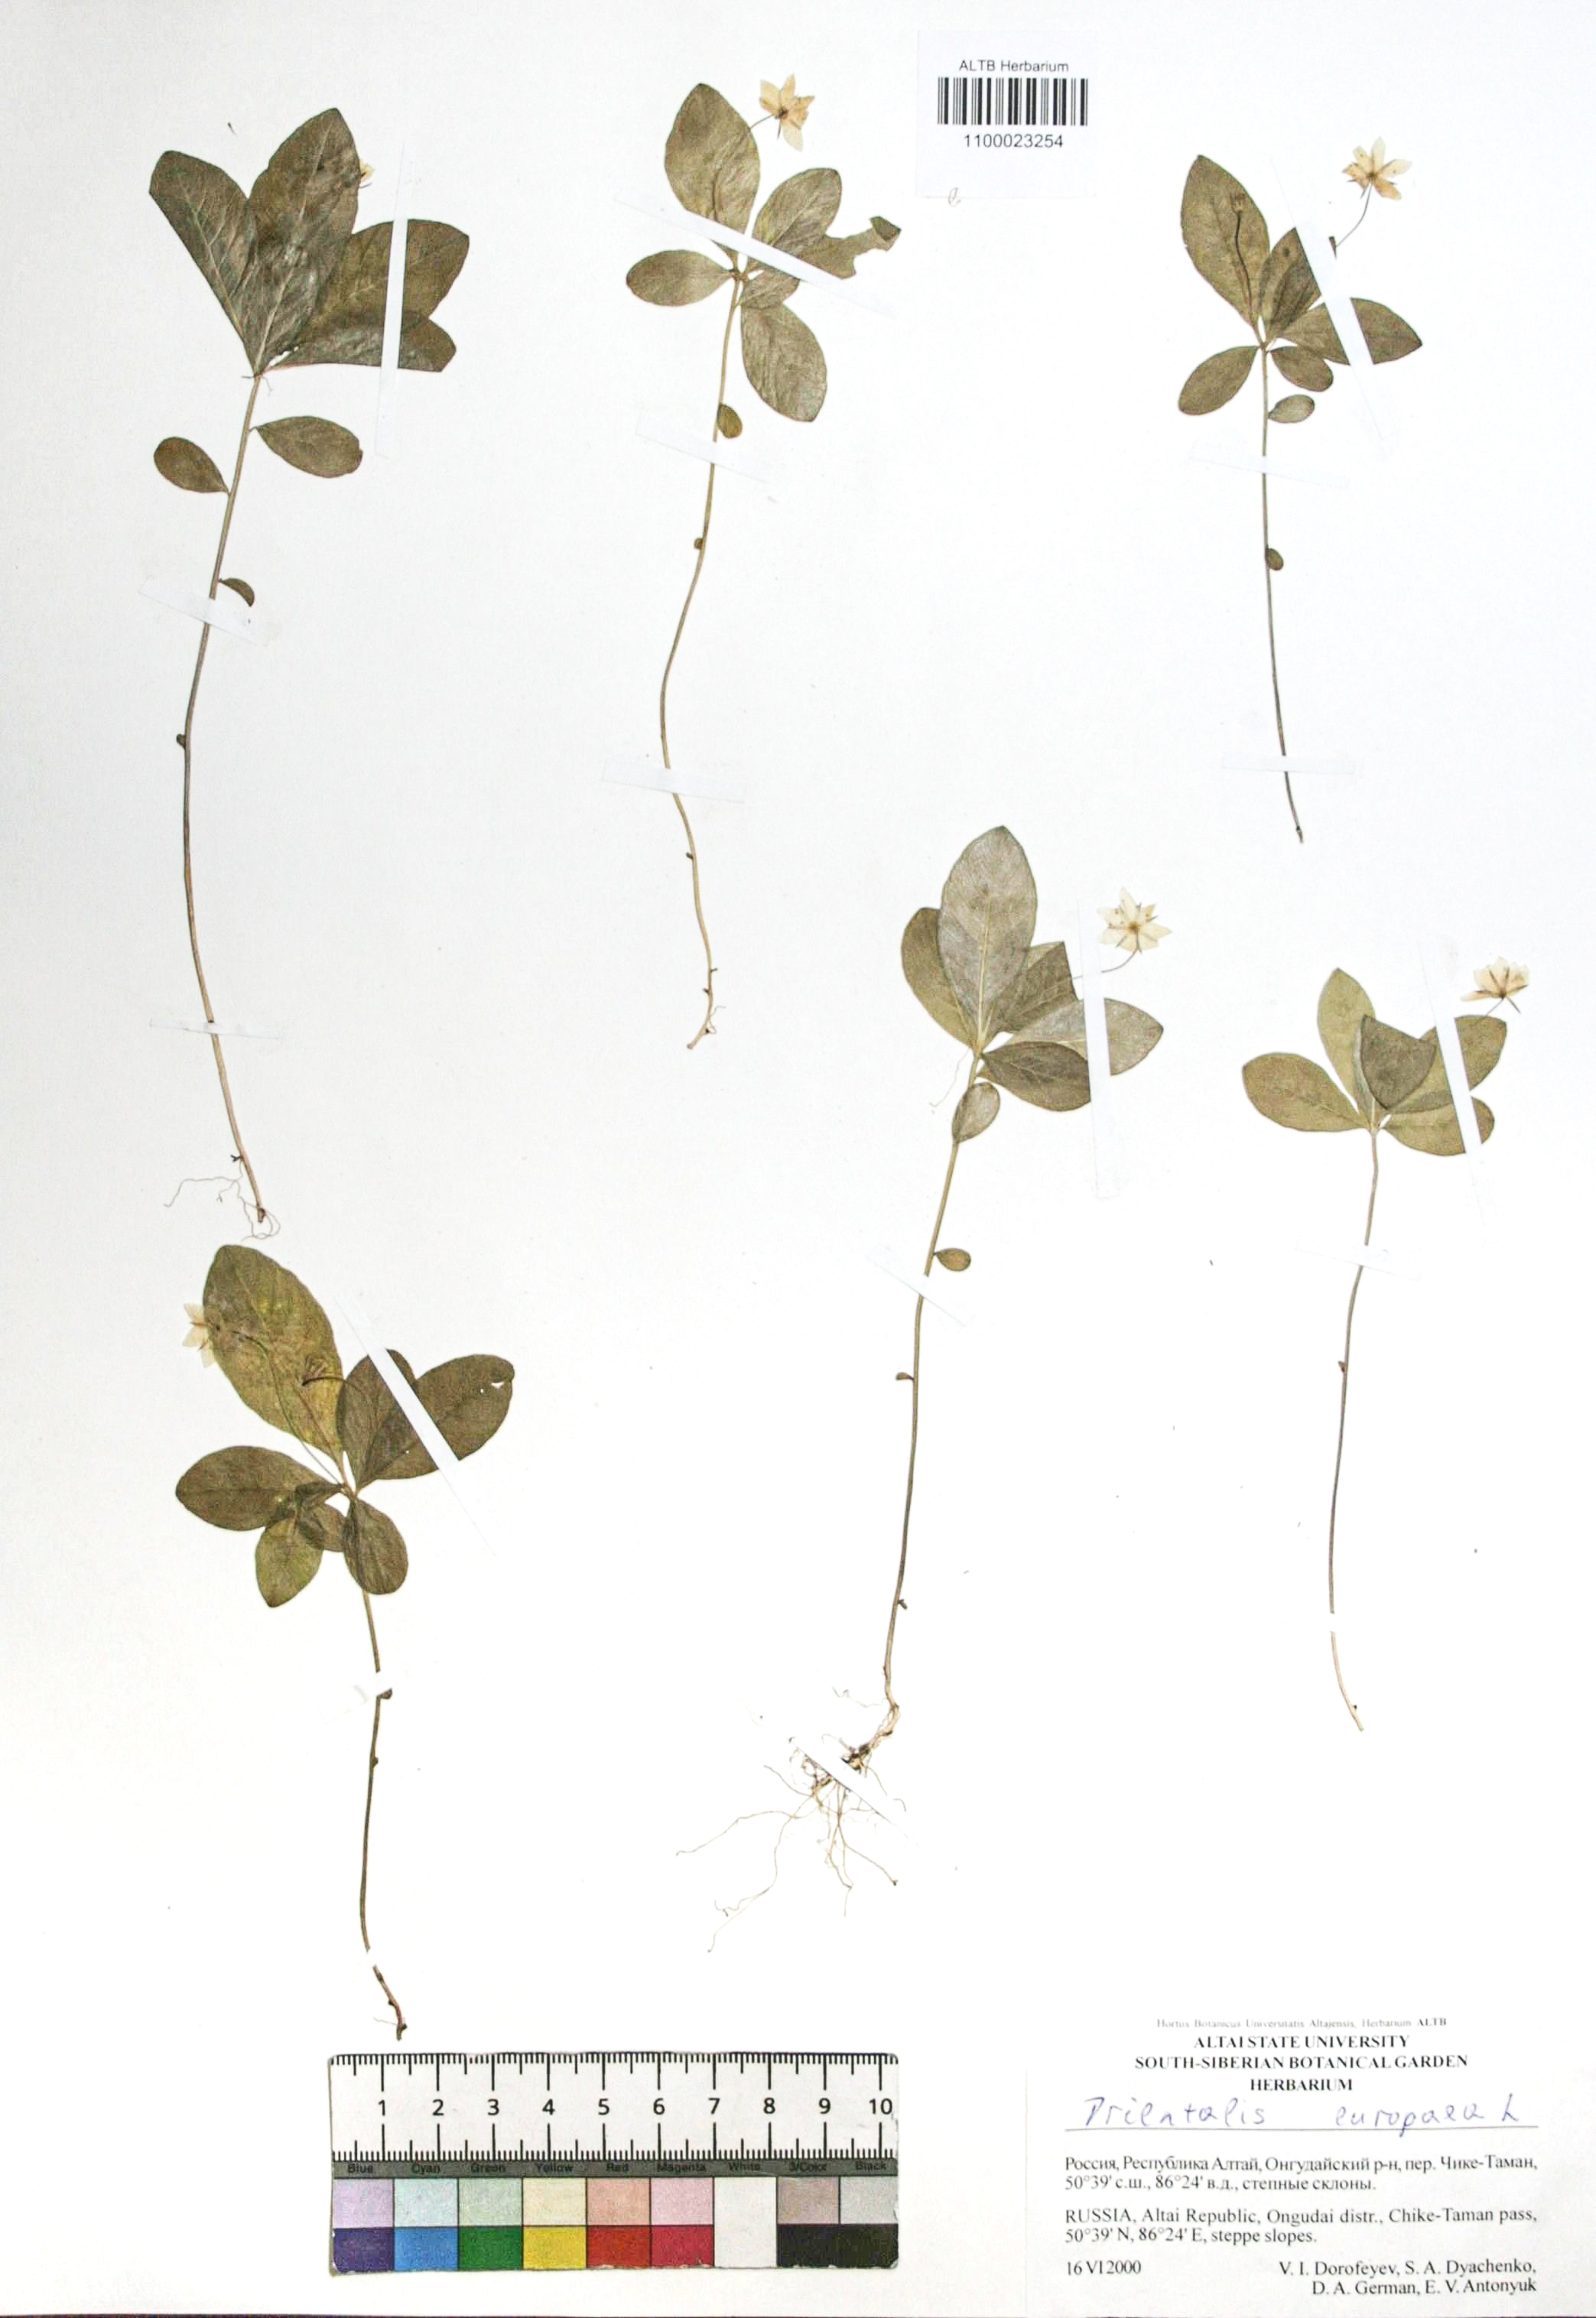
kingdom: Plantae
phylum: Tracheophyta
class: Magnoliopsida
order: Ericales
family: Primulaceae
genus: Lysimachia
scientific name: Lysimachia europaea
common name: Arctic starflower
